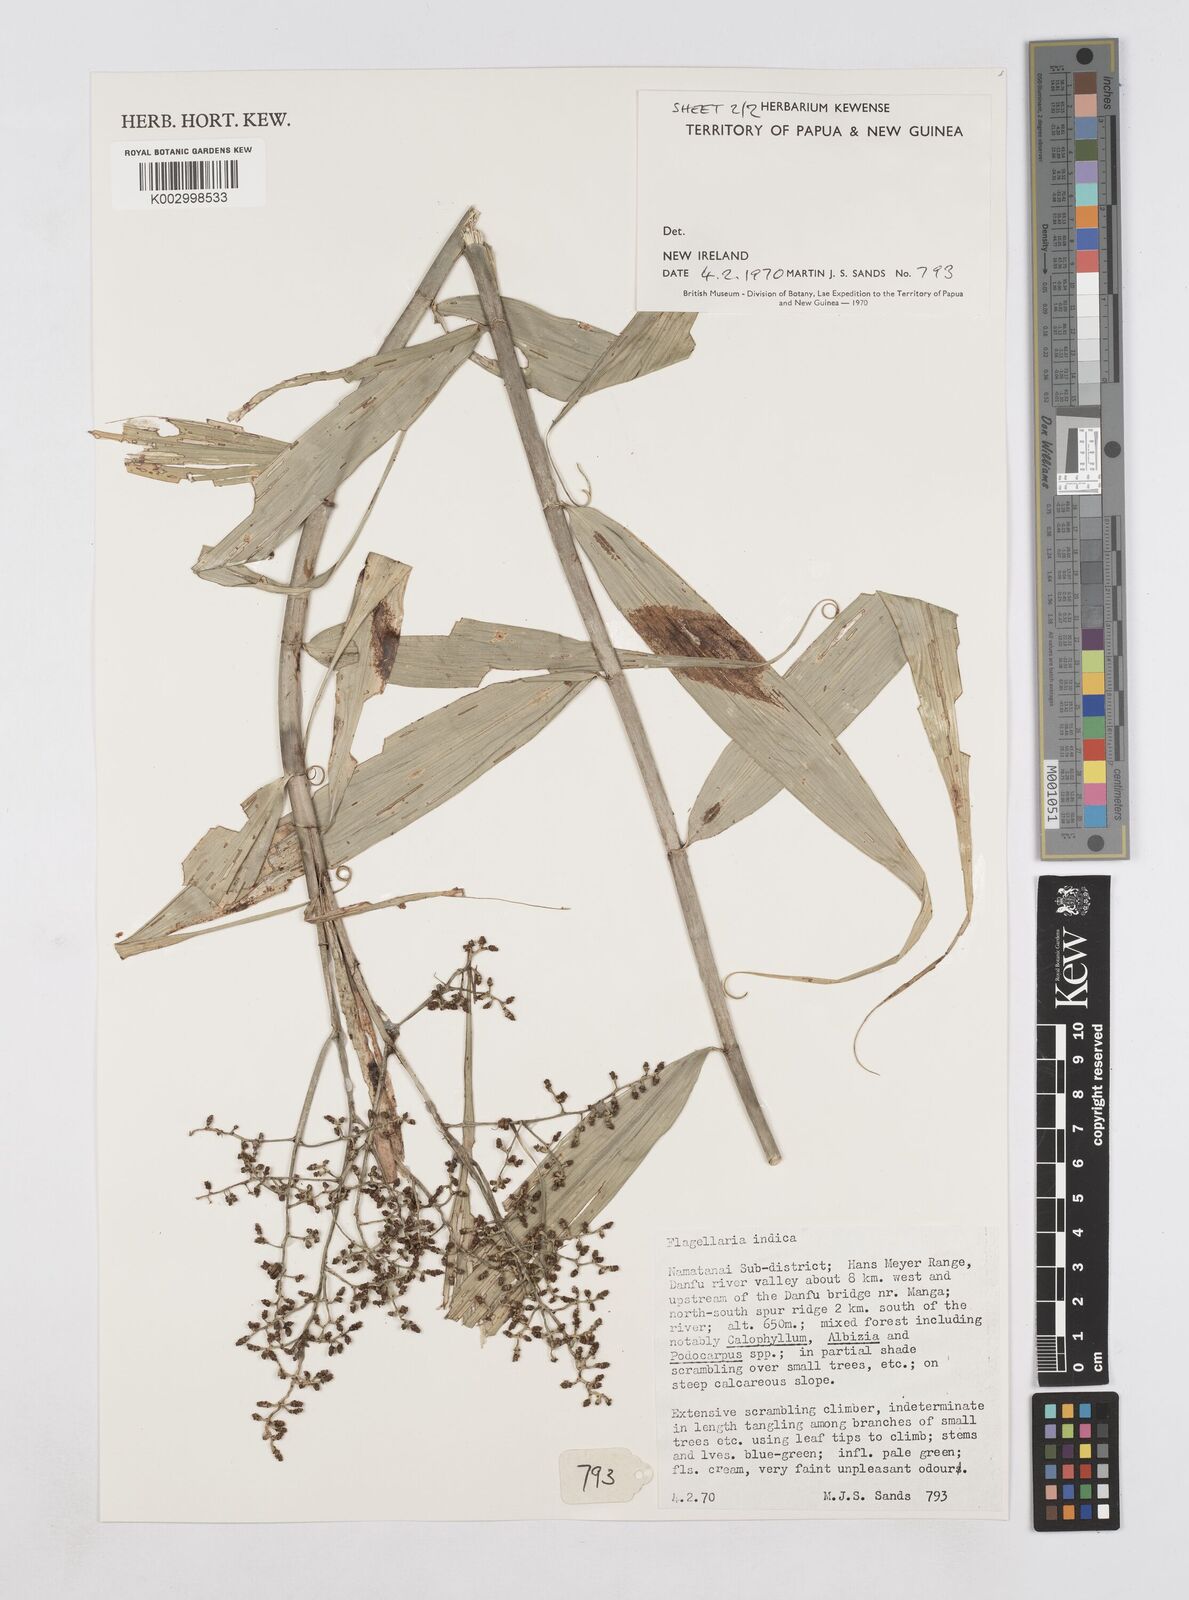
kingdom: Plantae
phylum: Tracheophyta
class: Liliopsida
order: Poales
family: Flagellariaceae
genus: Flagellaria
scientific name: Flagellaria indica
